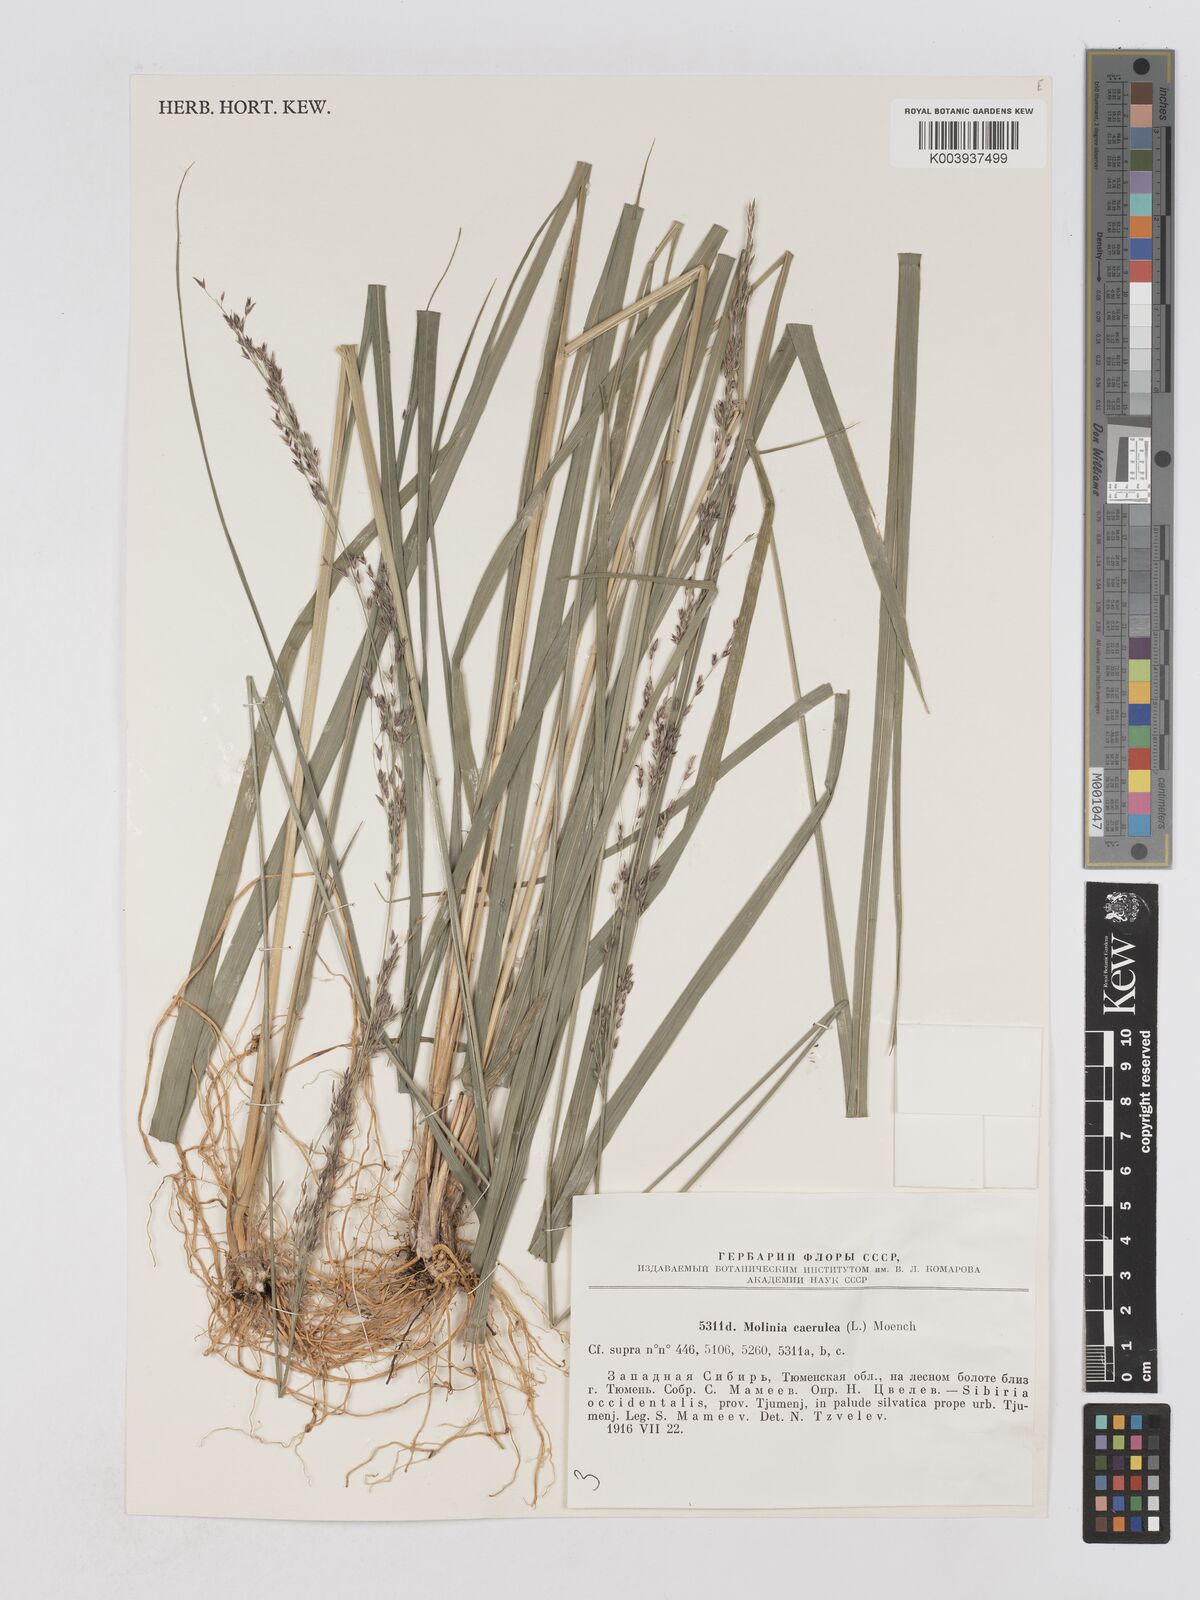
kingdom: Plantae
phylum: Tracheophyta
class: Liliopsida
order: Poales
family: Poaceae
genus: Molinia
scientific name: Molinia caerulea
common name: Purple moor-grass
